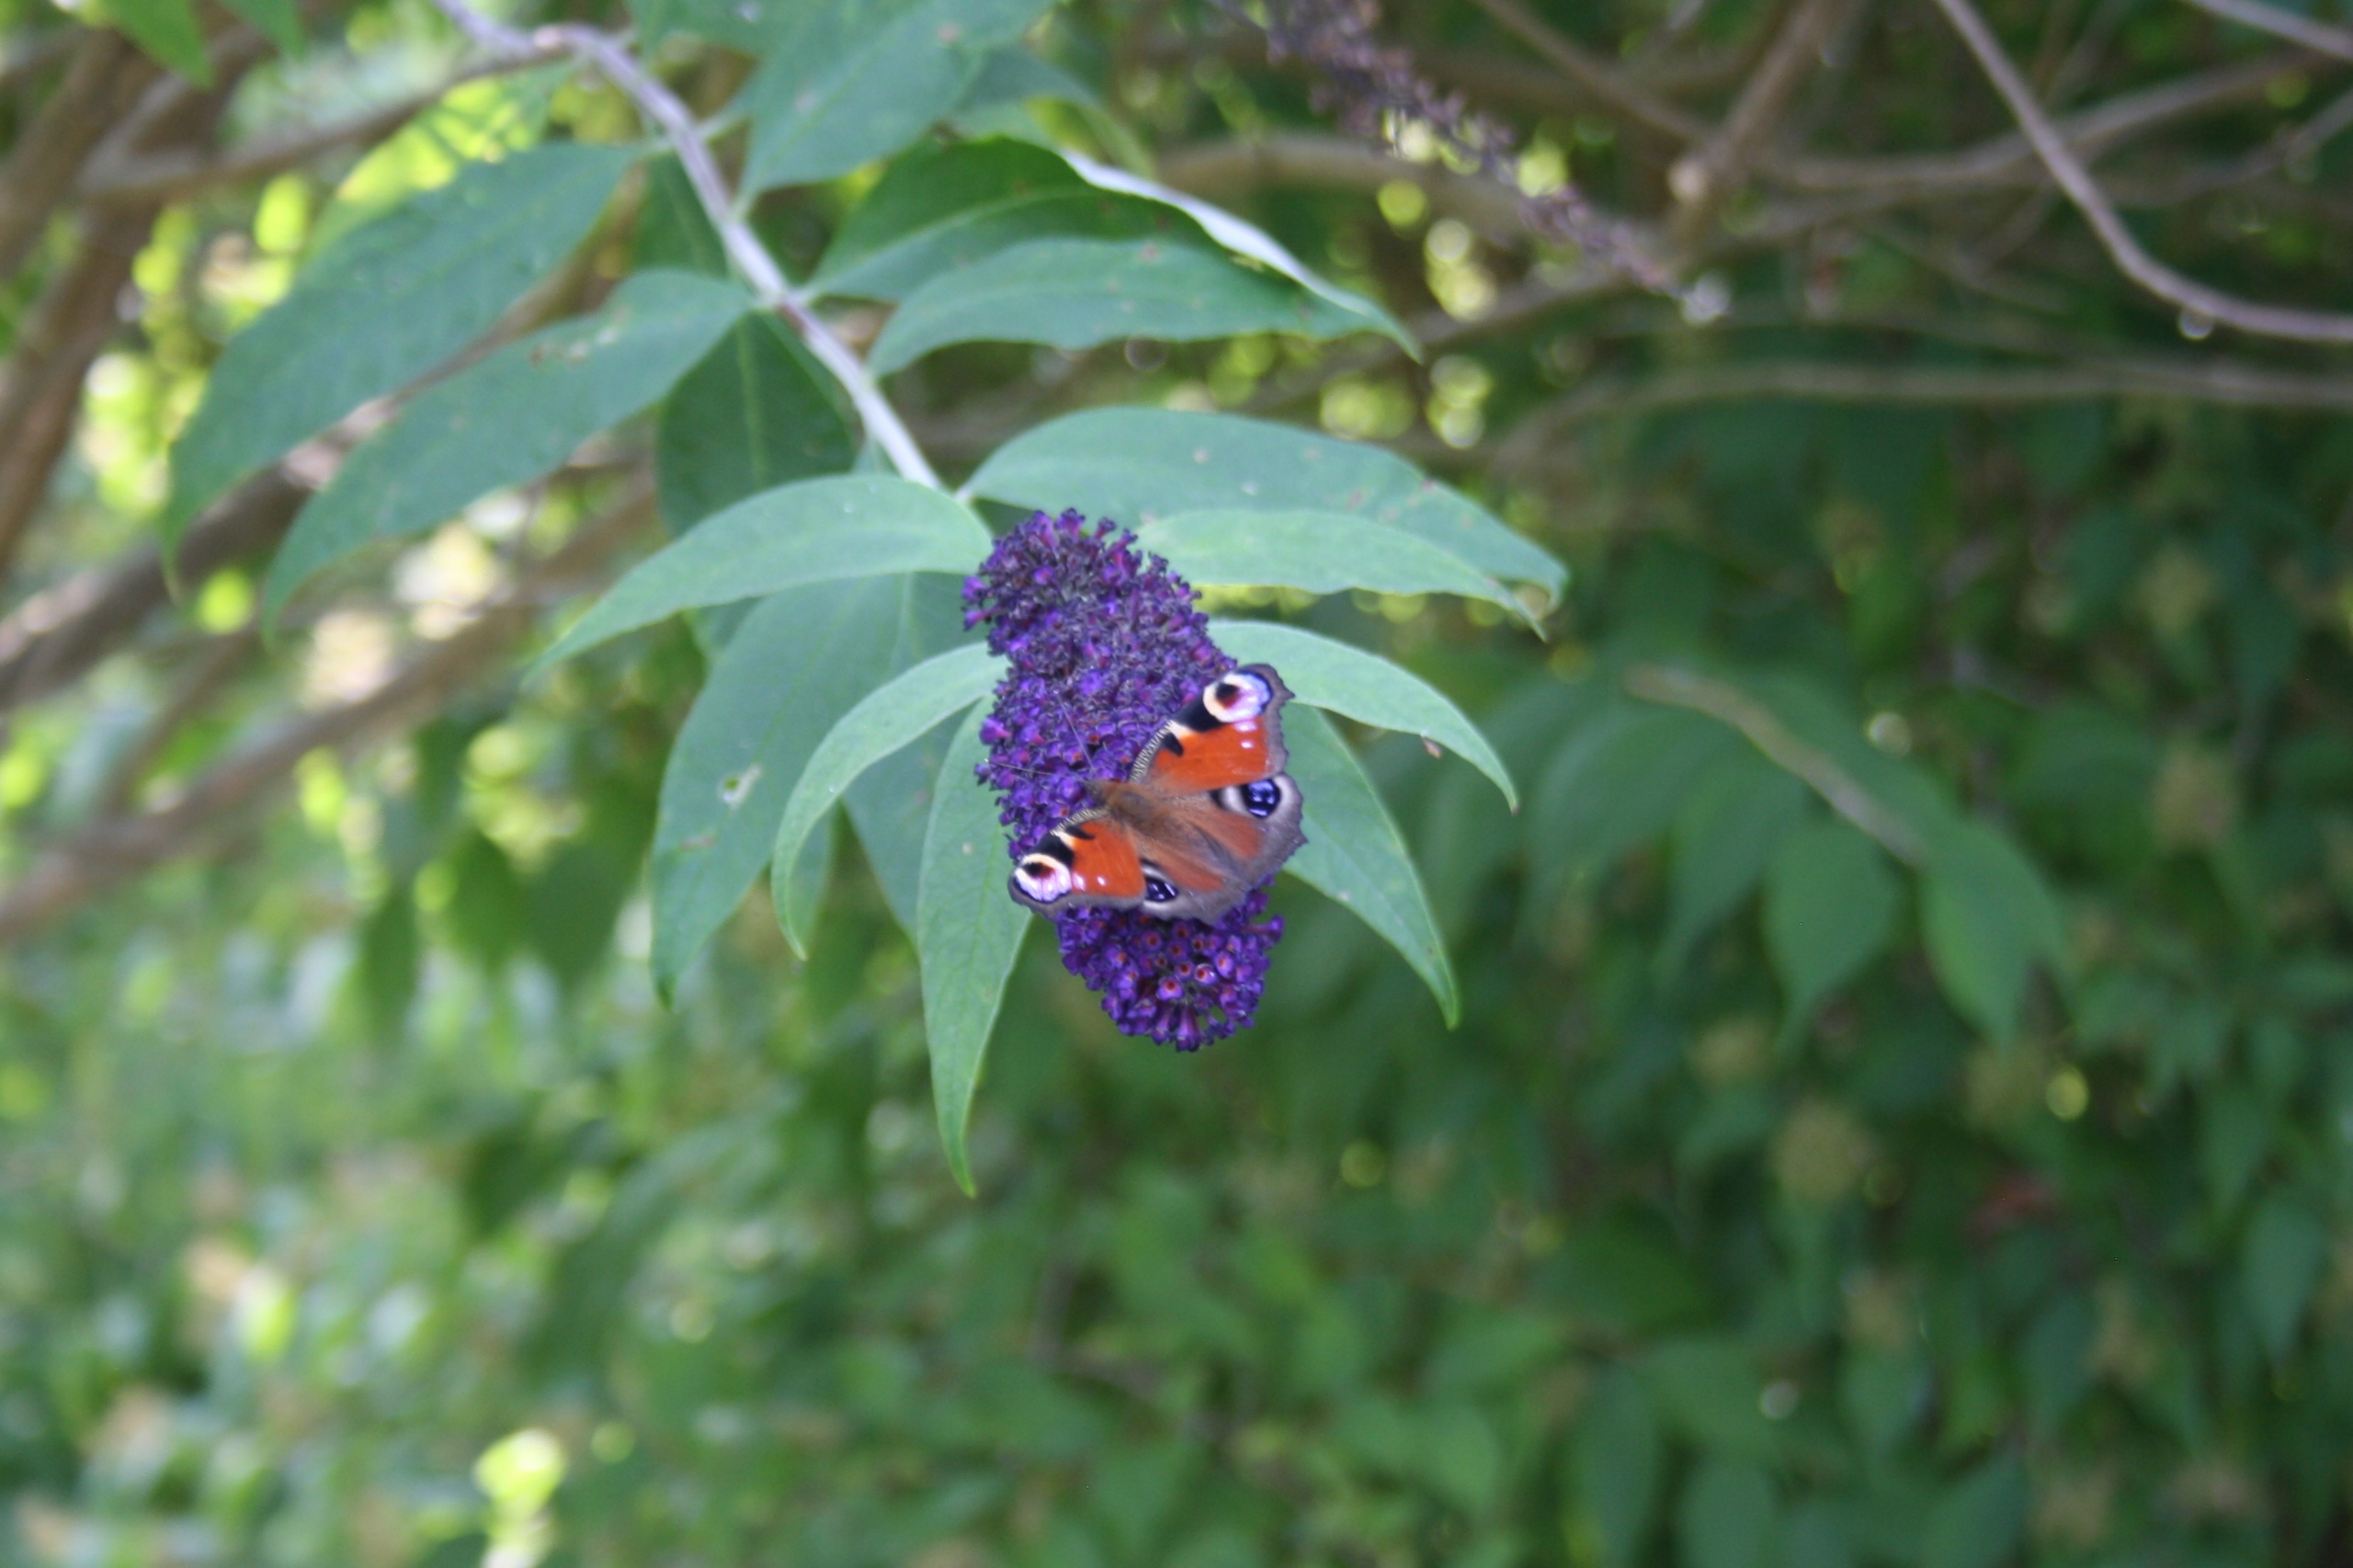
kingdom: Animalia
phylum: Arthropoda
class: Insecta
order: Lepidoptera
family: Nymphalidae
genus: Aglais
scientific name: Aglais io
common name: Dagpåfugleøje
